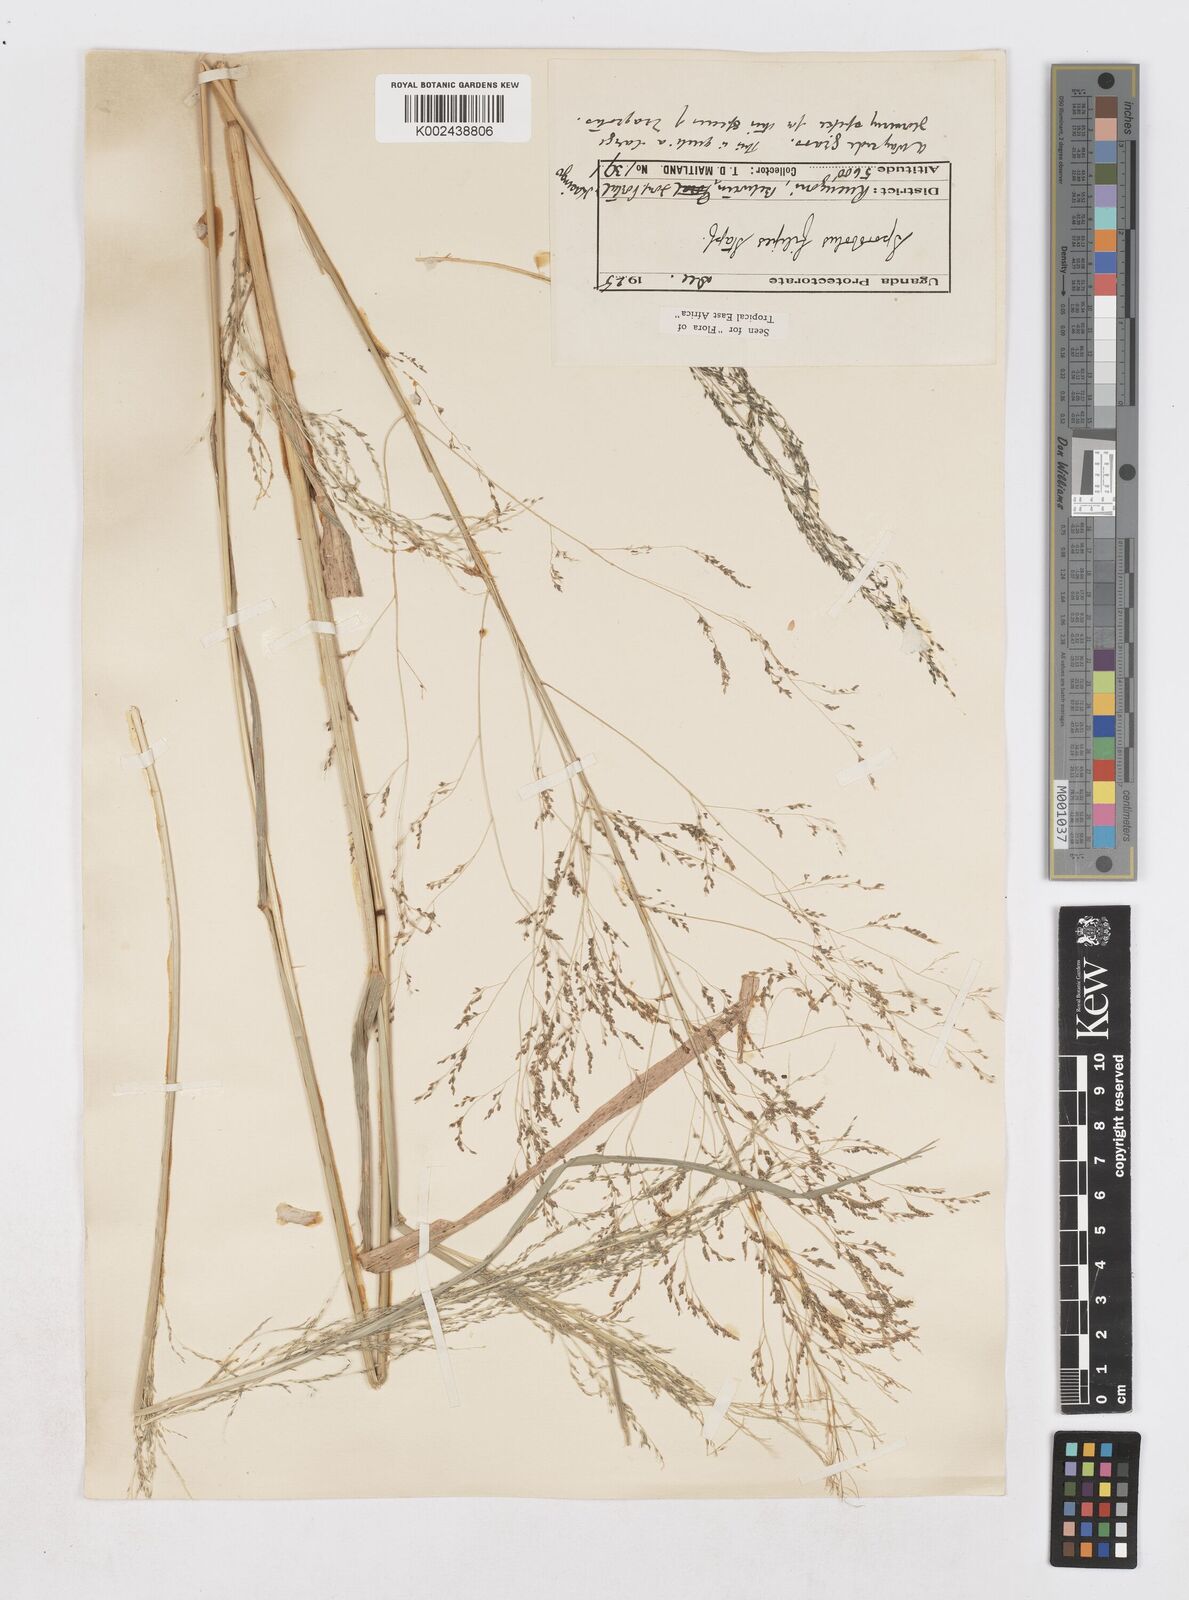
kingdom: Plantae
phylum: Tracheophyta
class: Liliopsida
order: Poales
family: Poaceae
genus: Sporobolus
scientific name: Sporobolus agrostoides
